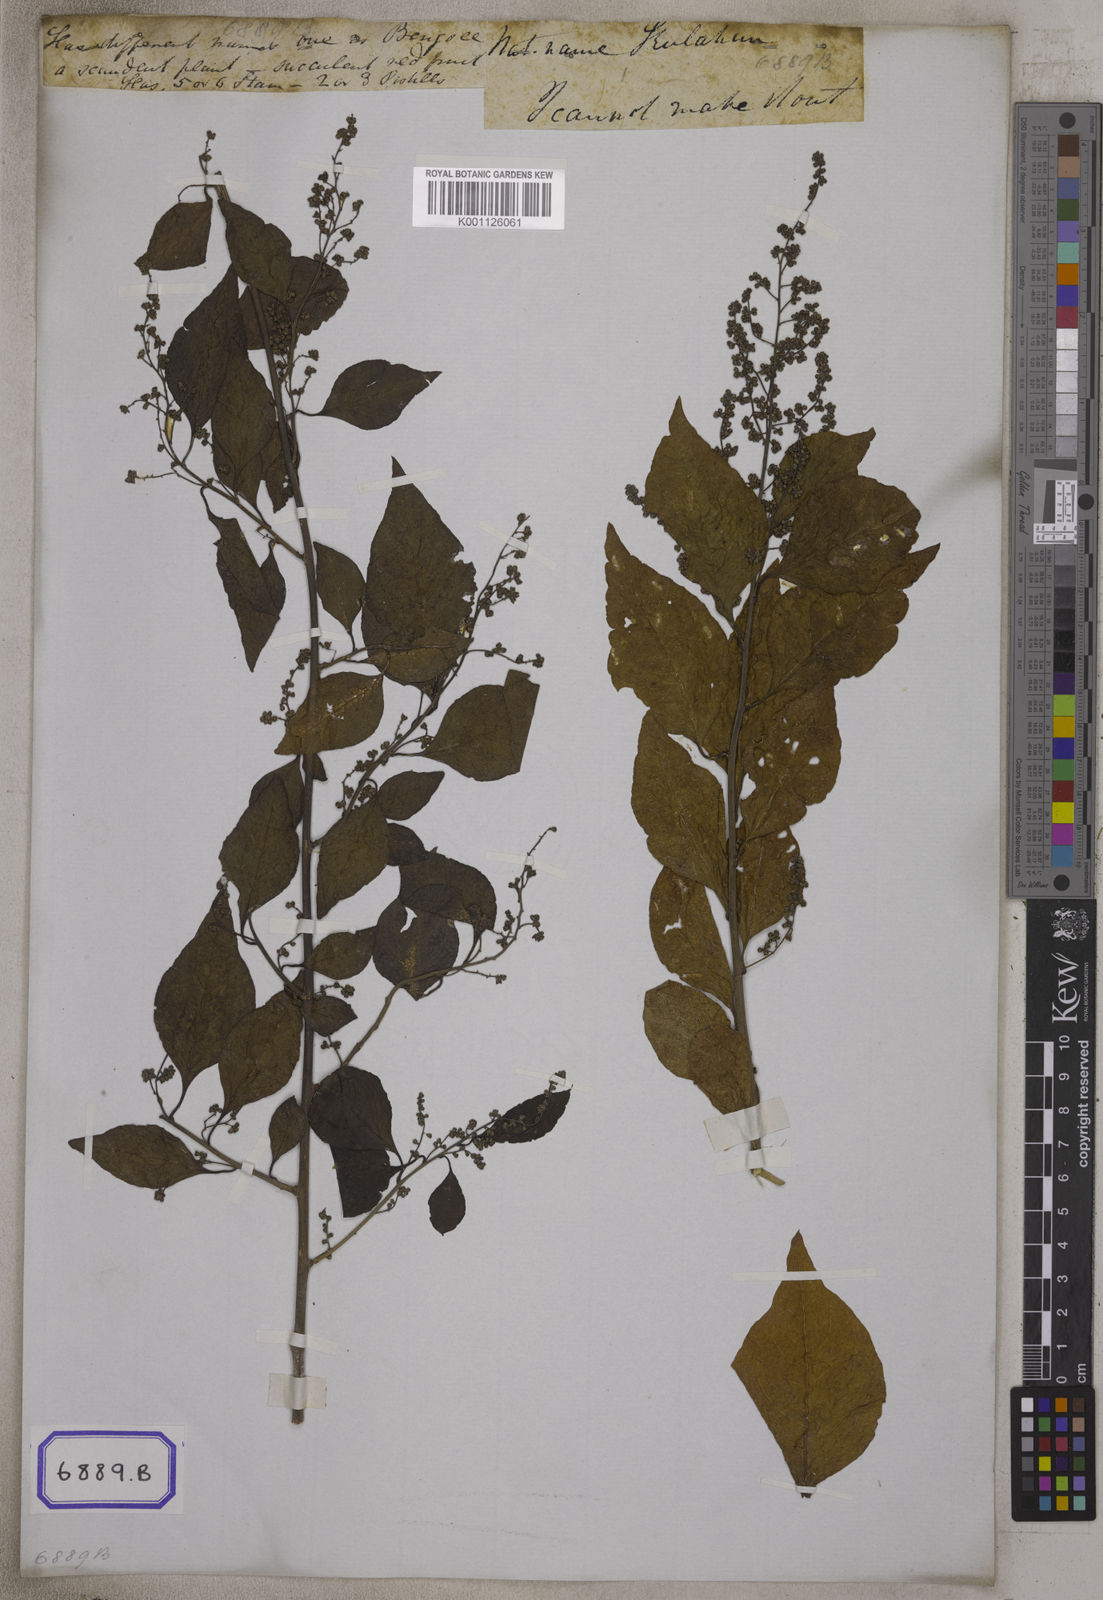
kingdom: Plantae
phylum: Tracheophyta
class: Magnoliopsida
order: Caryophyllales
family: Amaranthaceae
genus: Bosea
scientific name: Bosea amherstiana
